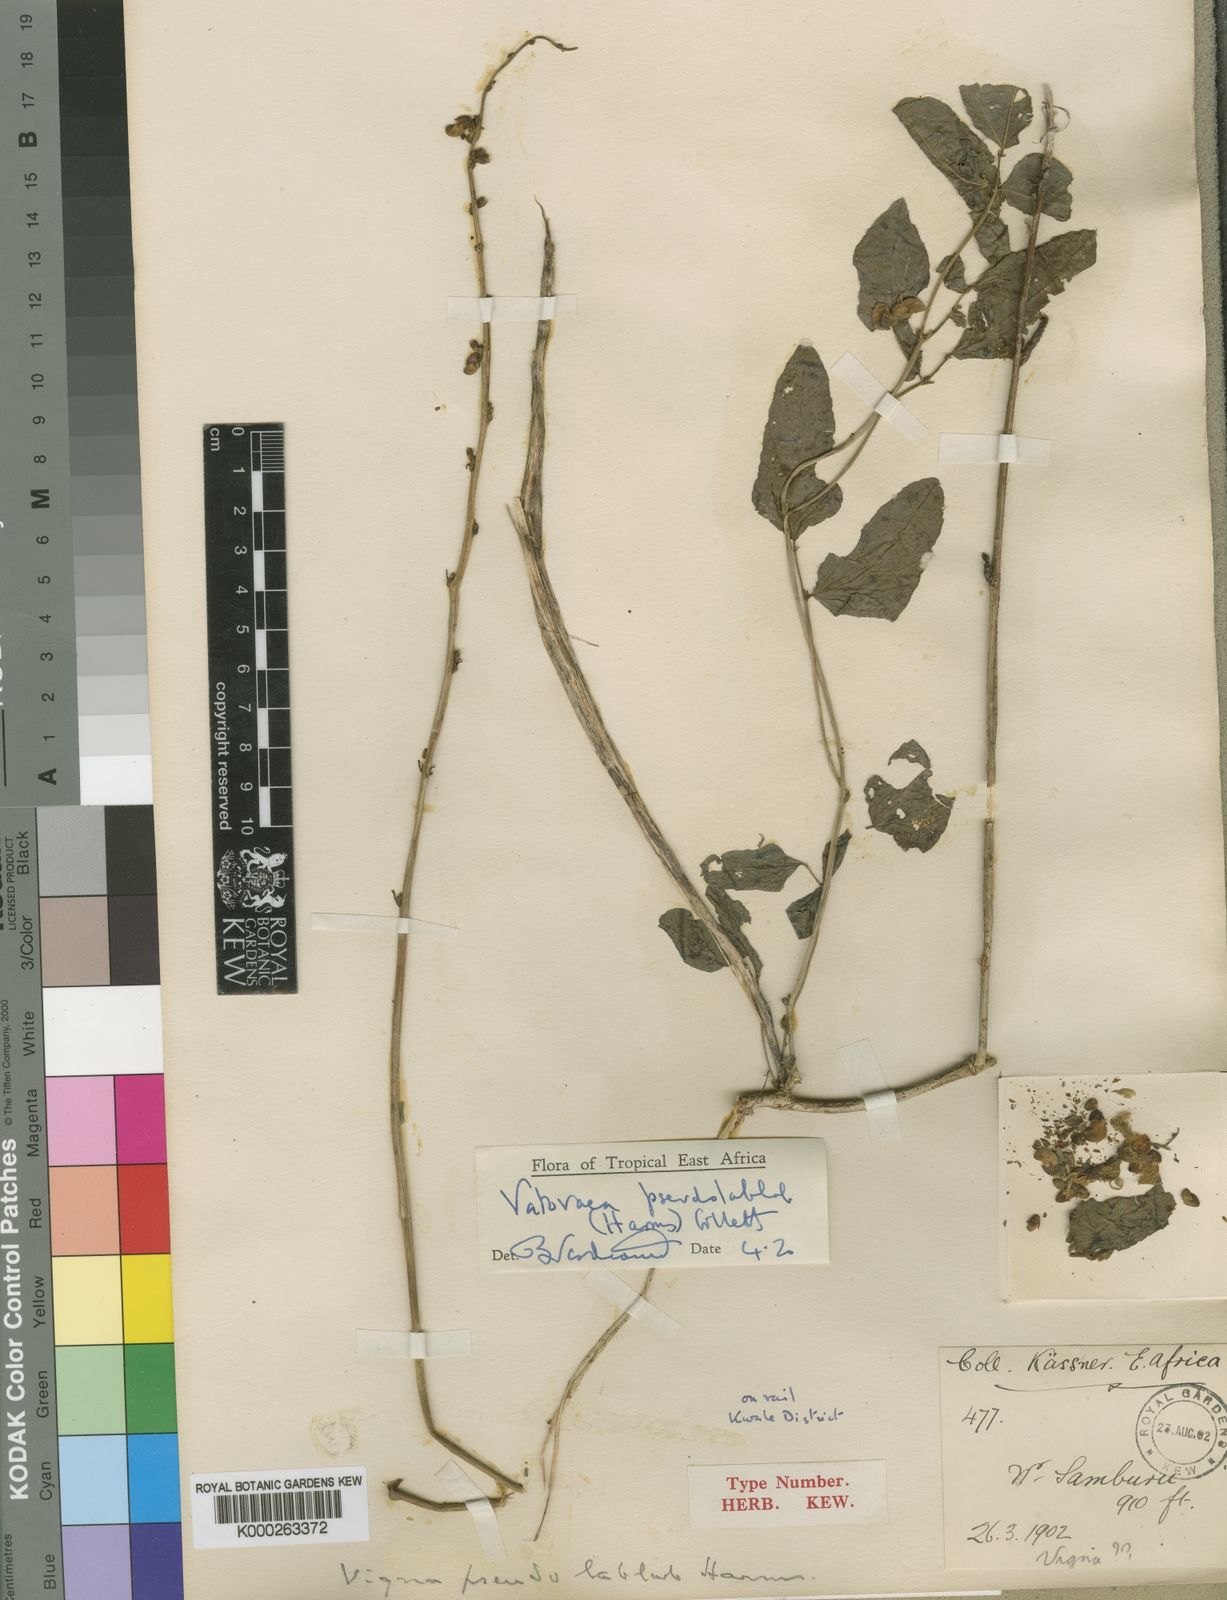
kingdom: Plantae
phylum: Tracheophyta
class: Magnoliopsida
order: Fabales
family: Fabaceae
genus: Vatovaea
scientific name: Vatovaea pseudolablab
